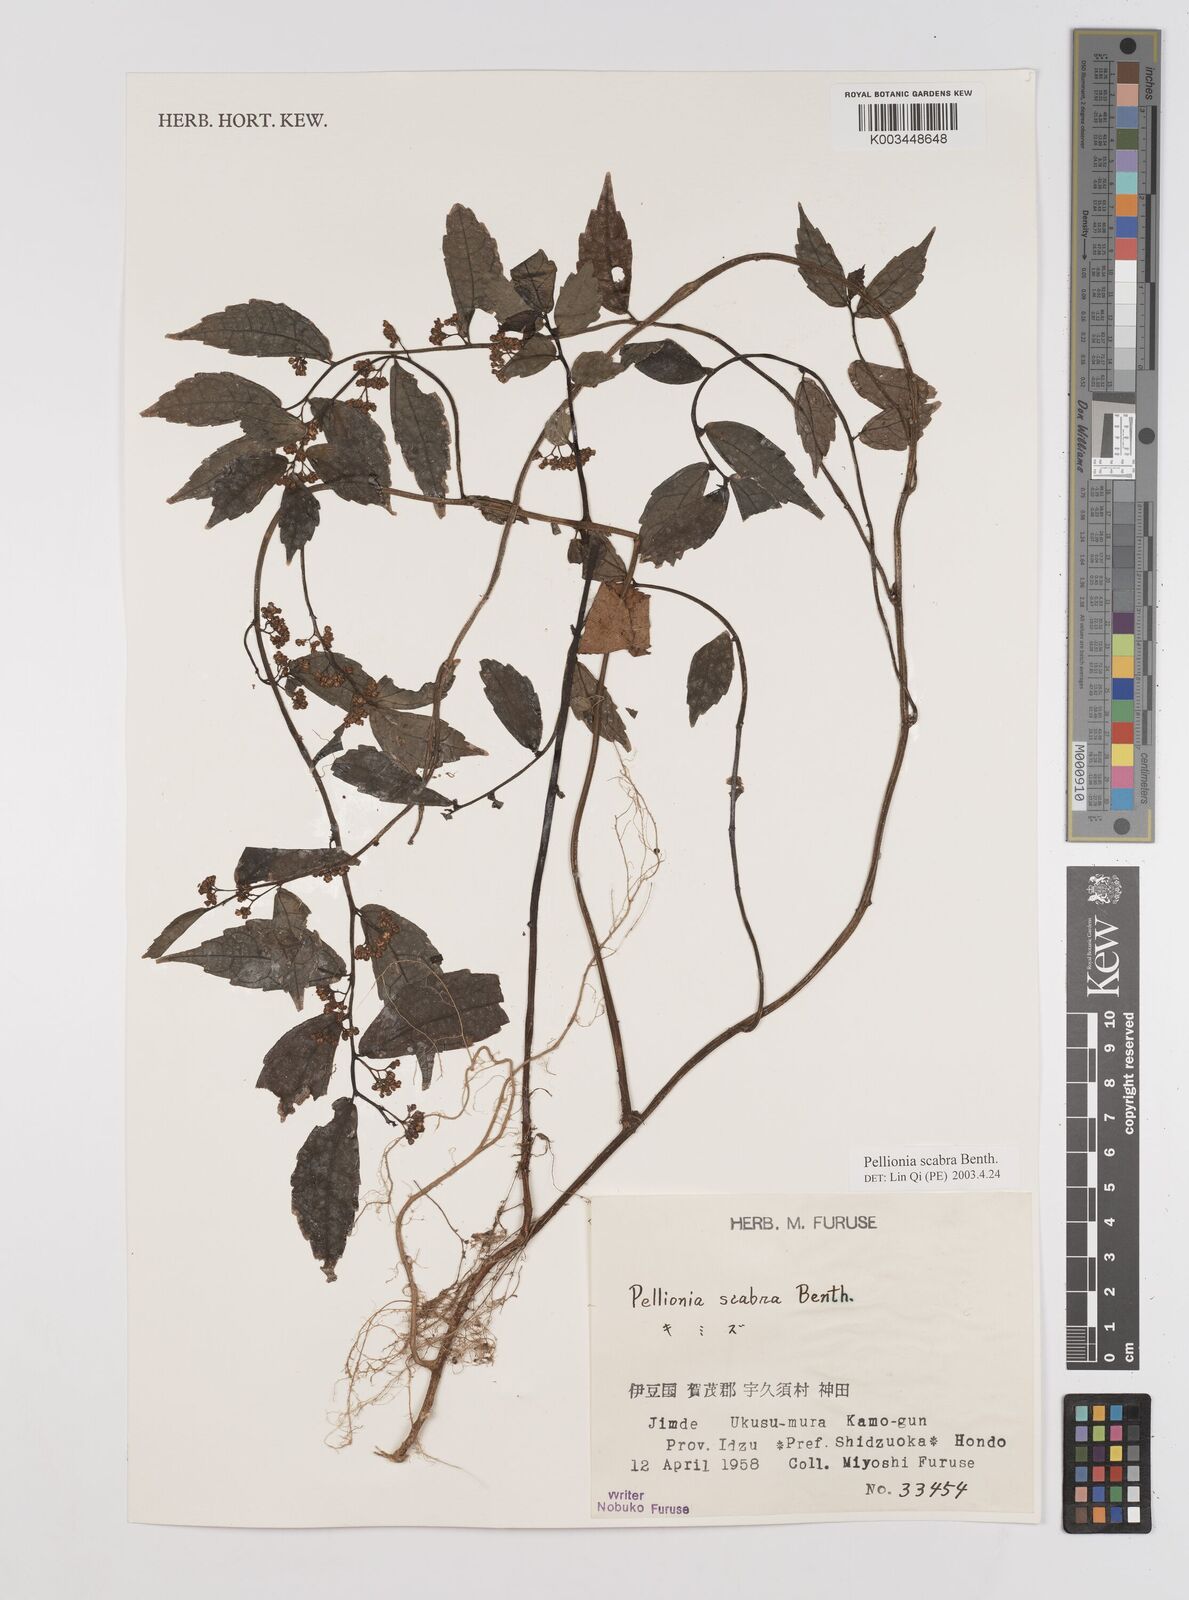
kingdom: Plantae
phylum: Tracheophyta
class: Magnoliopsida
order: Rosales
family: Urticaceae
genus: Elatostema
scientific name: Elatostema
